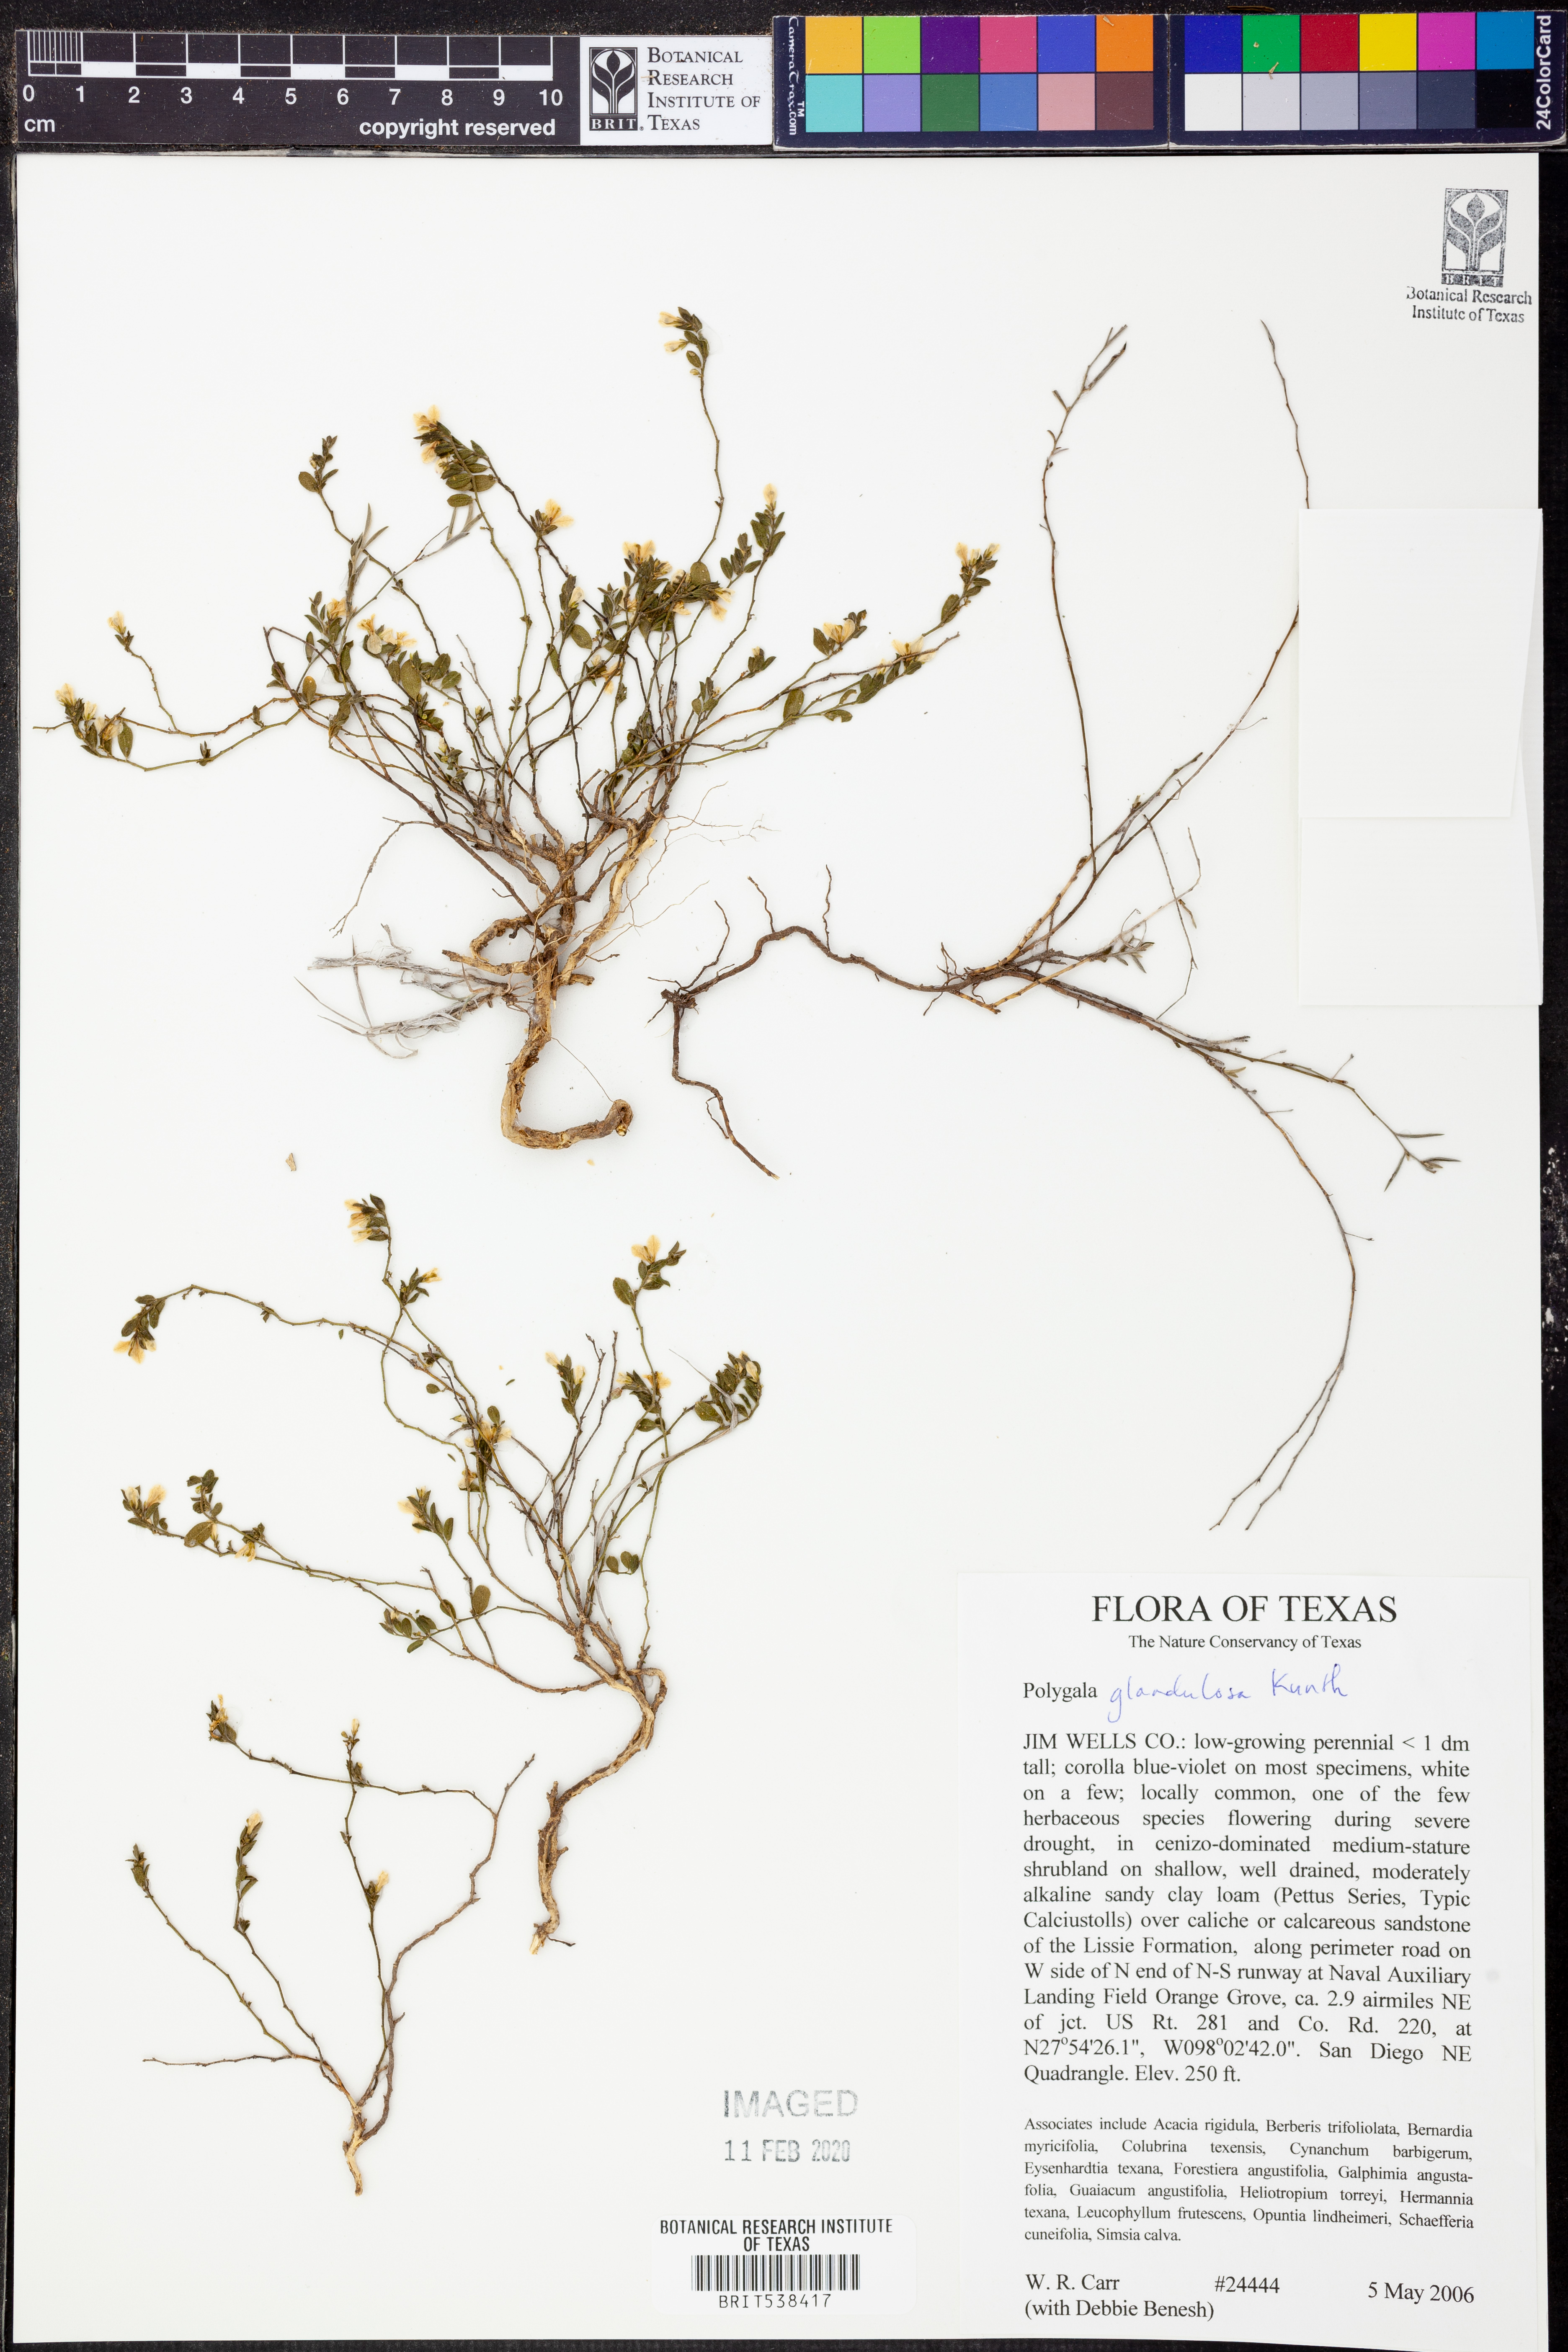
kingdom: Plantae
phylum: Tracheophyta
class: Magnoliopsida
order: Fabales
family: Polygalaceae
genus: Hebecarpa
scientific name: Hebecarpa punctata
